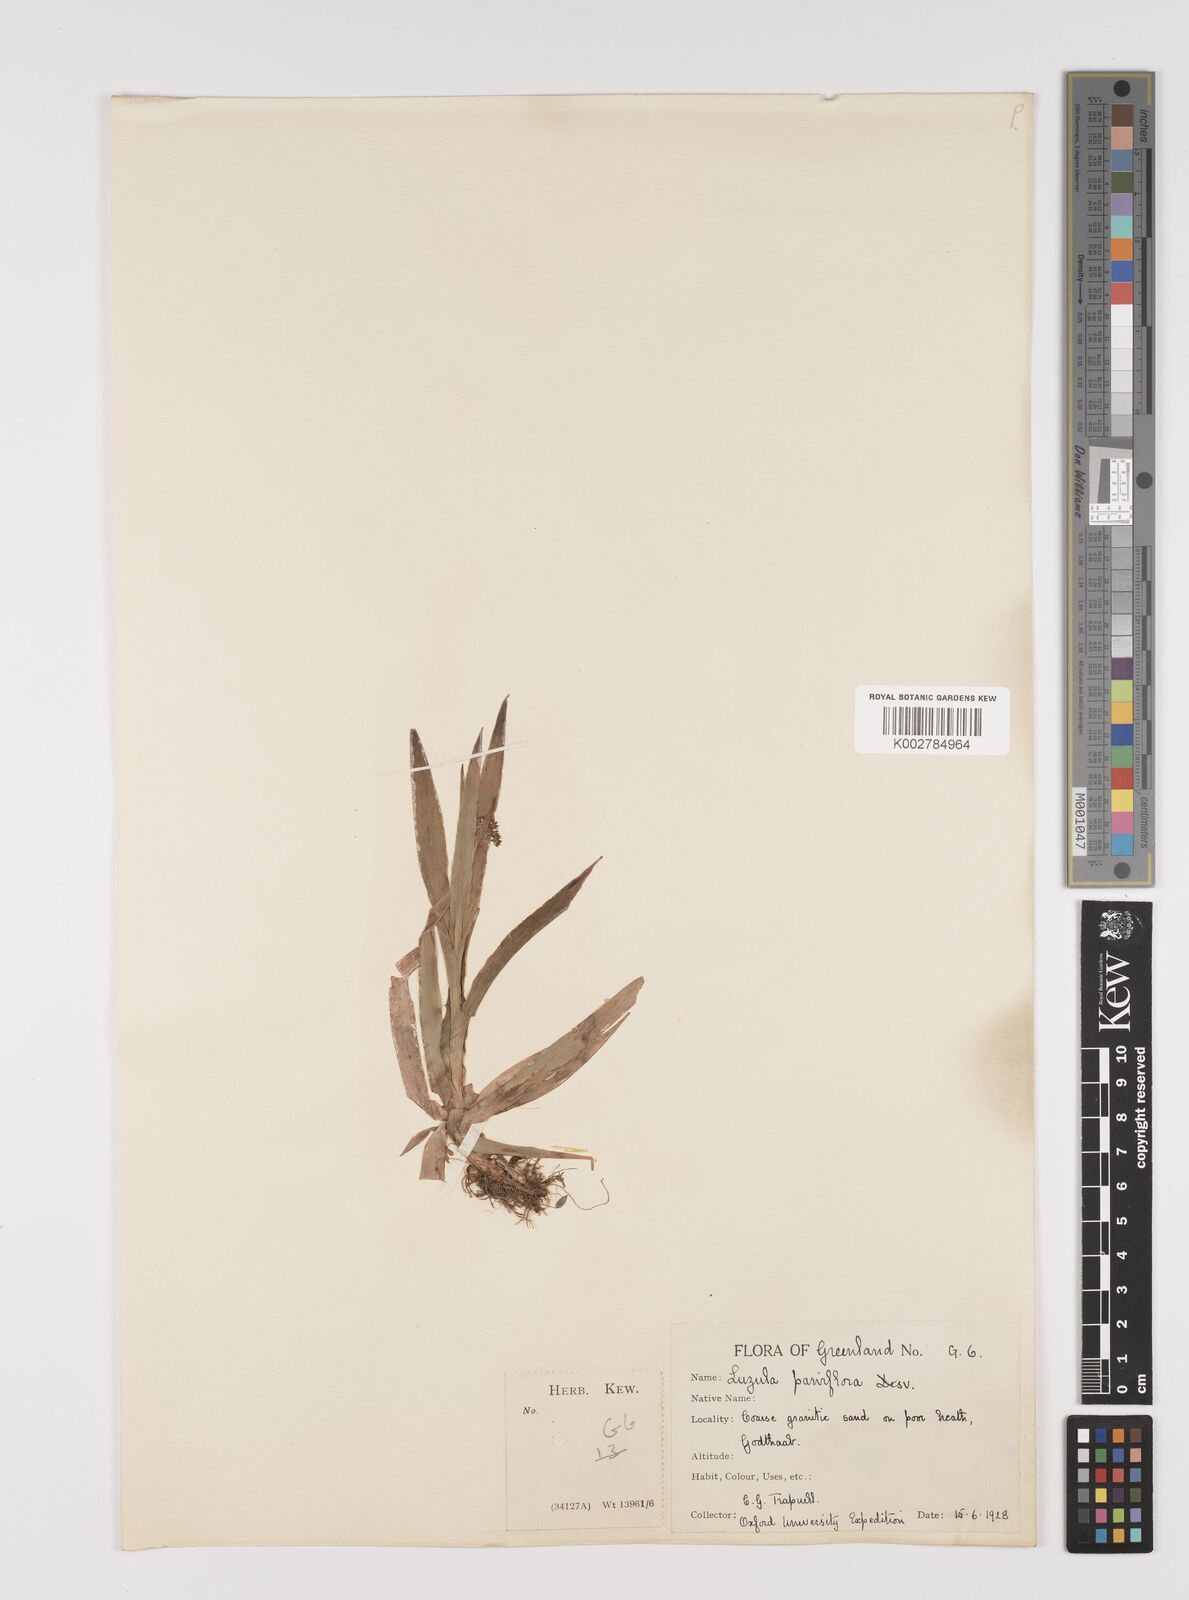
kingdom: Plantae
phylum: Tracheophyta
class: Liliopsida
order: Poales
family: Juncaceae
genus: Luzula
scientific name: Luzula parviflora
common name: Millet woodrush
